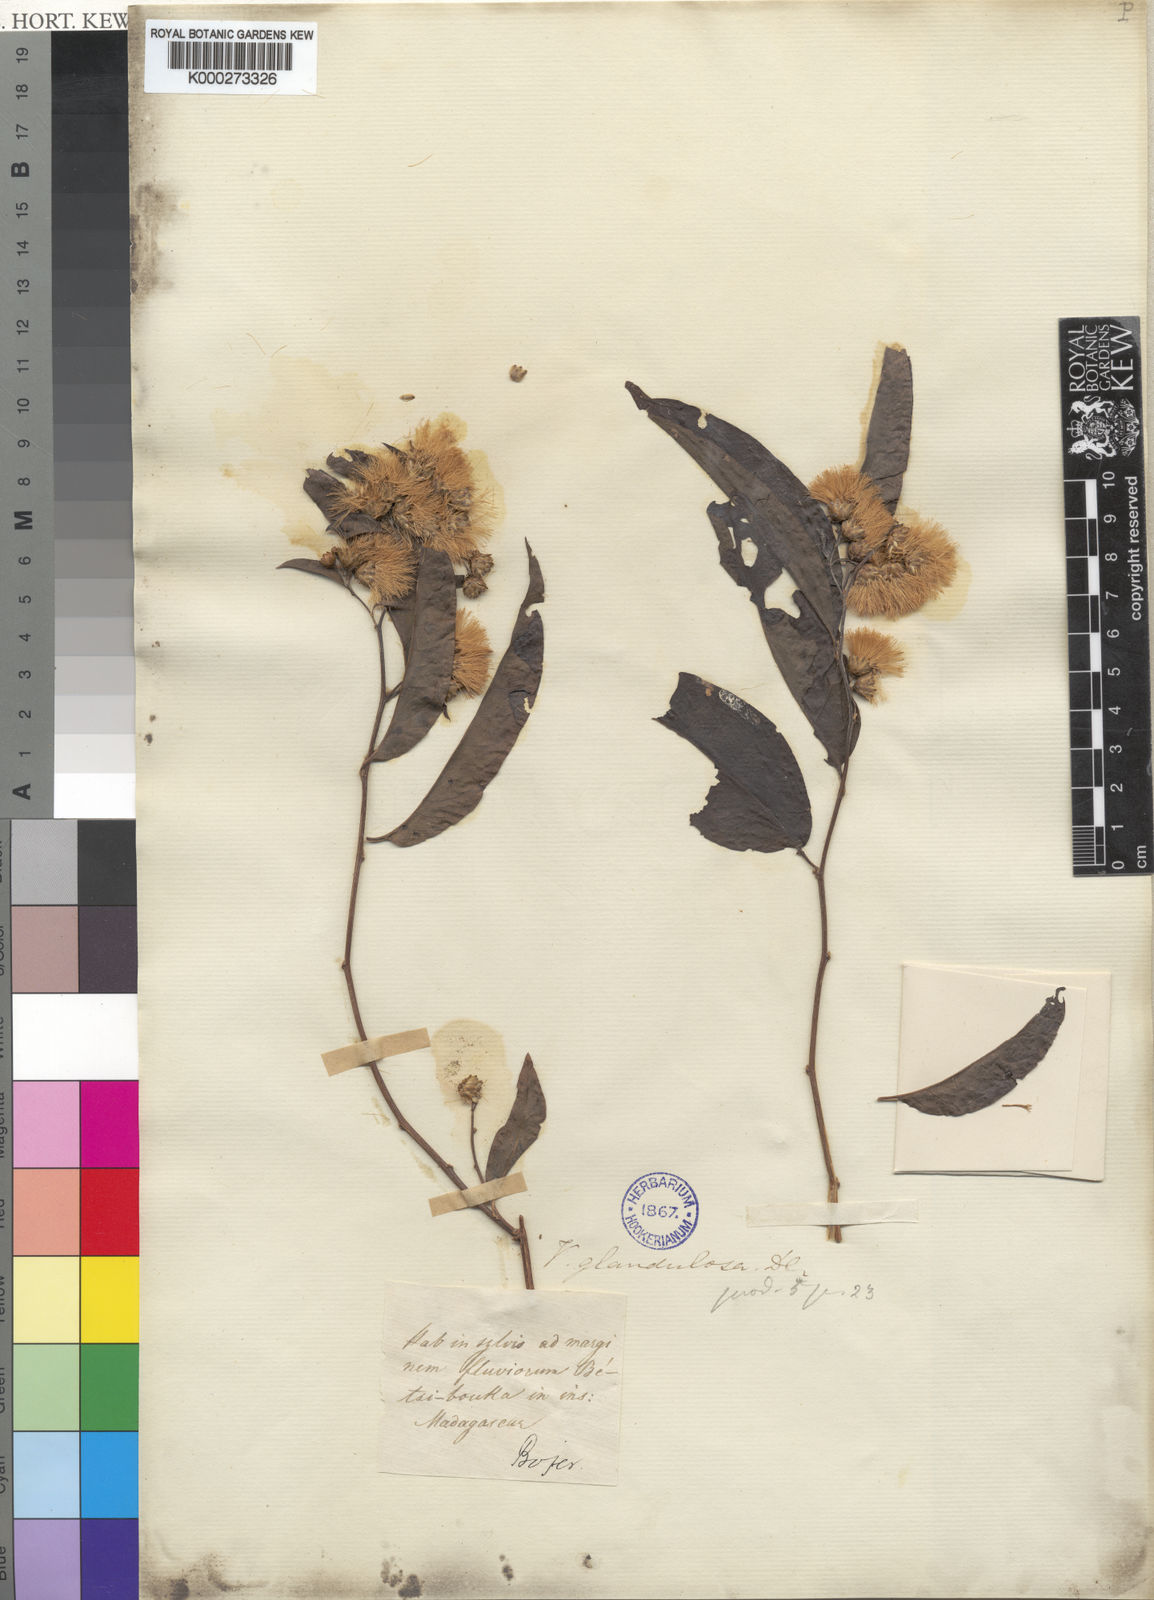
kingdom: Plantae
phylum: Tracheophyta
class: Magnoliopsida
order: Asterales
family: Asteraceae
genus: Distephanus
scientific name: Distephanus madagascariensis
